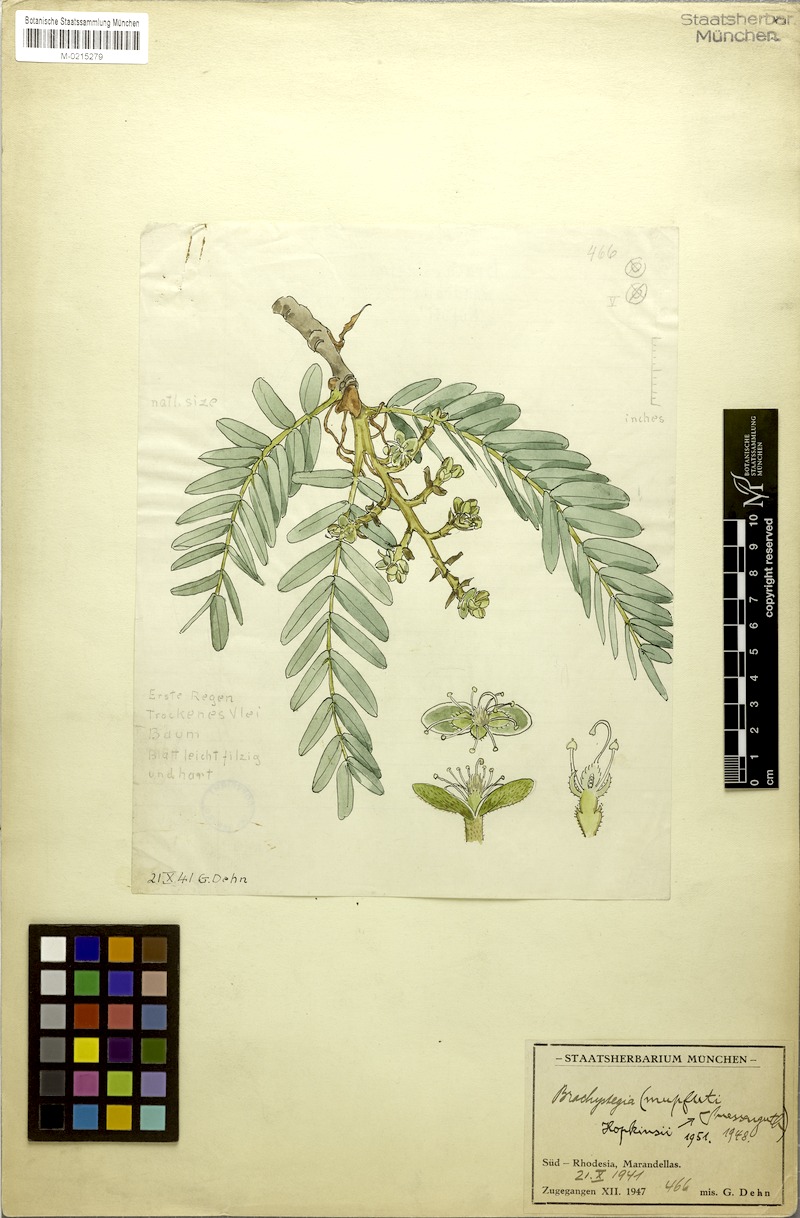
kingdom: Plantae
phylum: Tracheophyta
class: Magnoliopsida
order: Fabales
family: Fabaceae
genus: Brachystegia
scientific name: Brachystegia boehmii
